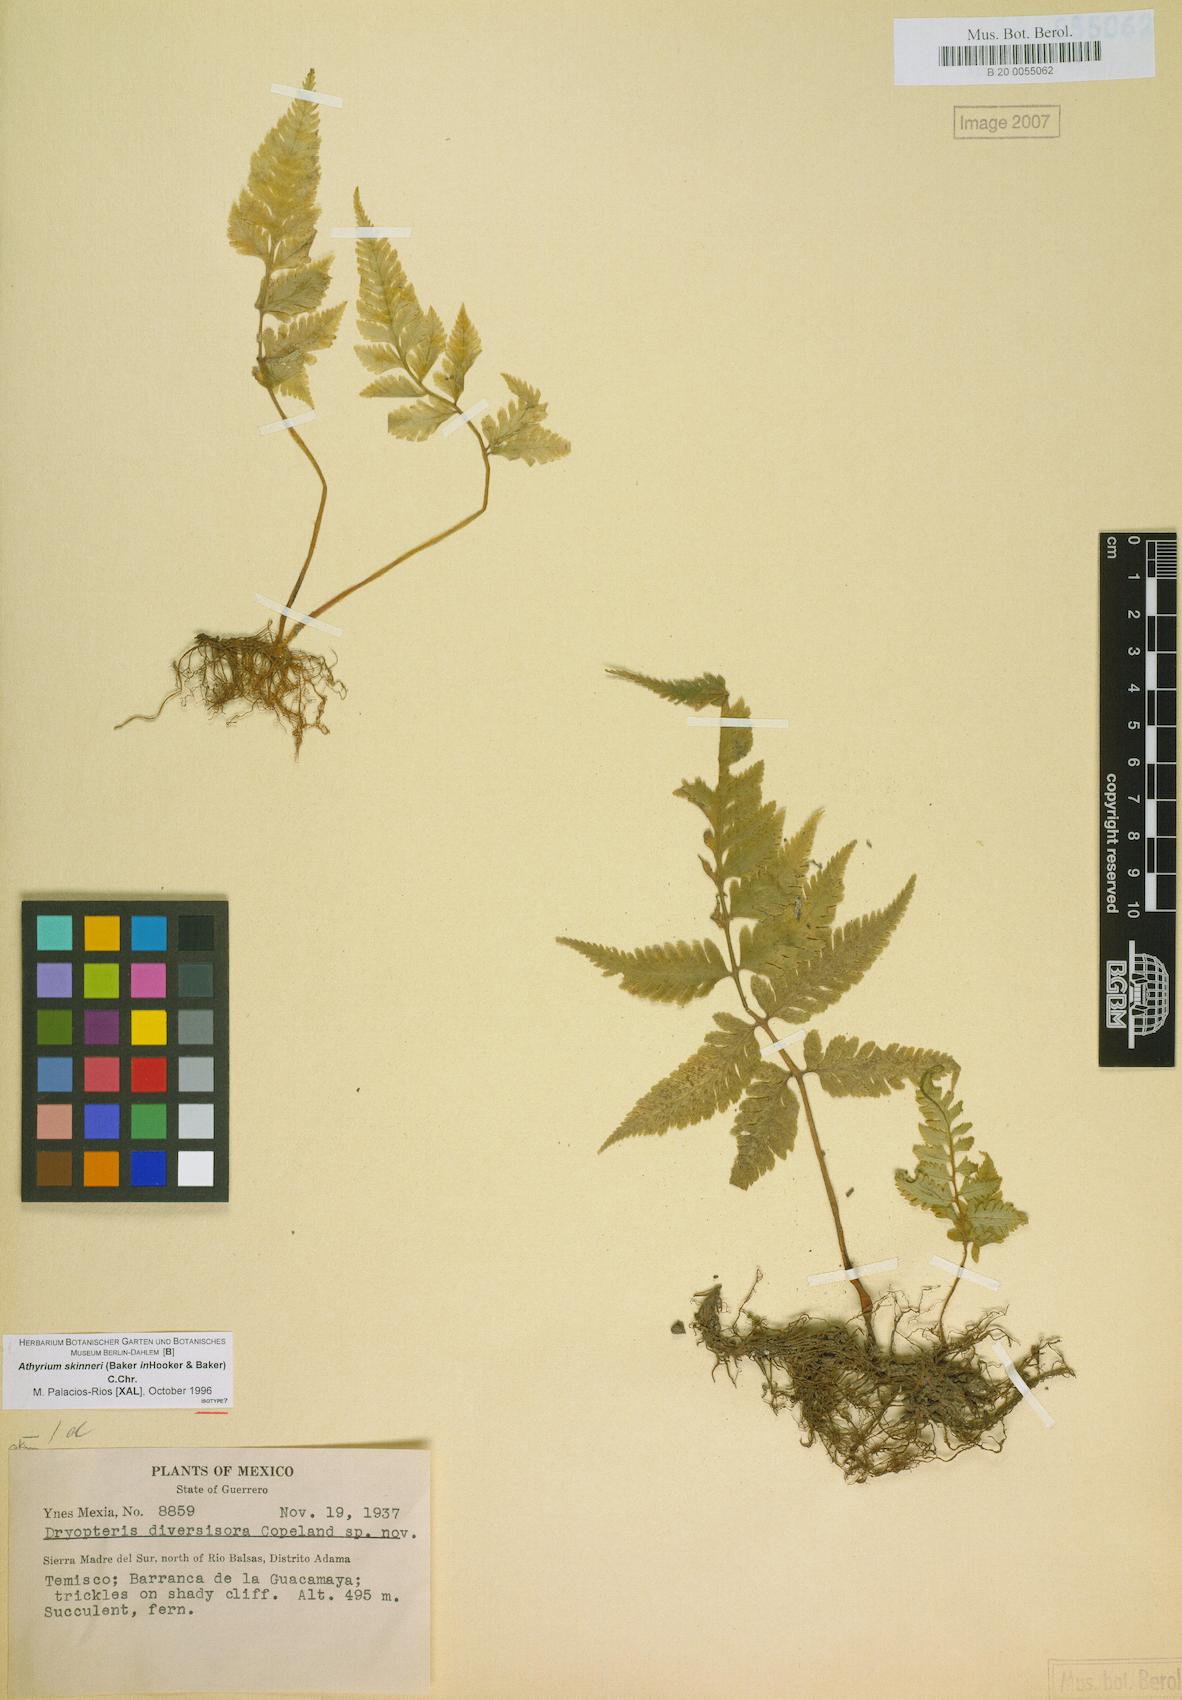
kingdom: Plantae
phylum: Tracheophyta
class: Polypodiopsida
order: Polypodiales
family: Athyriaceae
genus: Ephemeropteris
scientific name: Ephemeropteris skinneri
